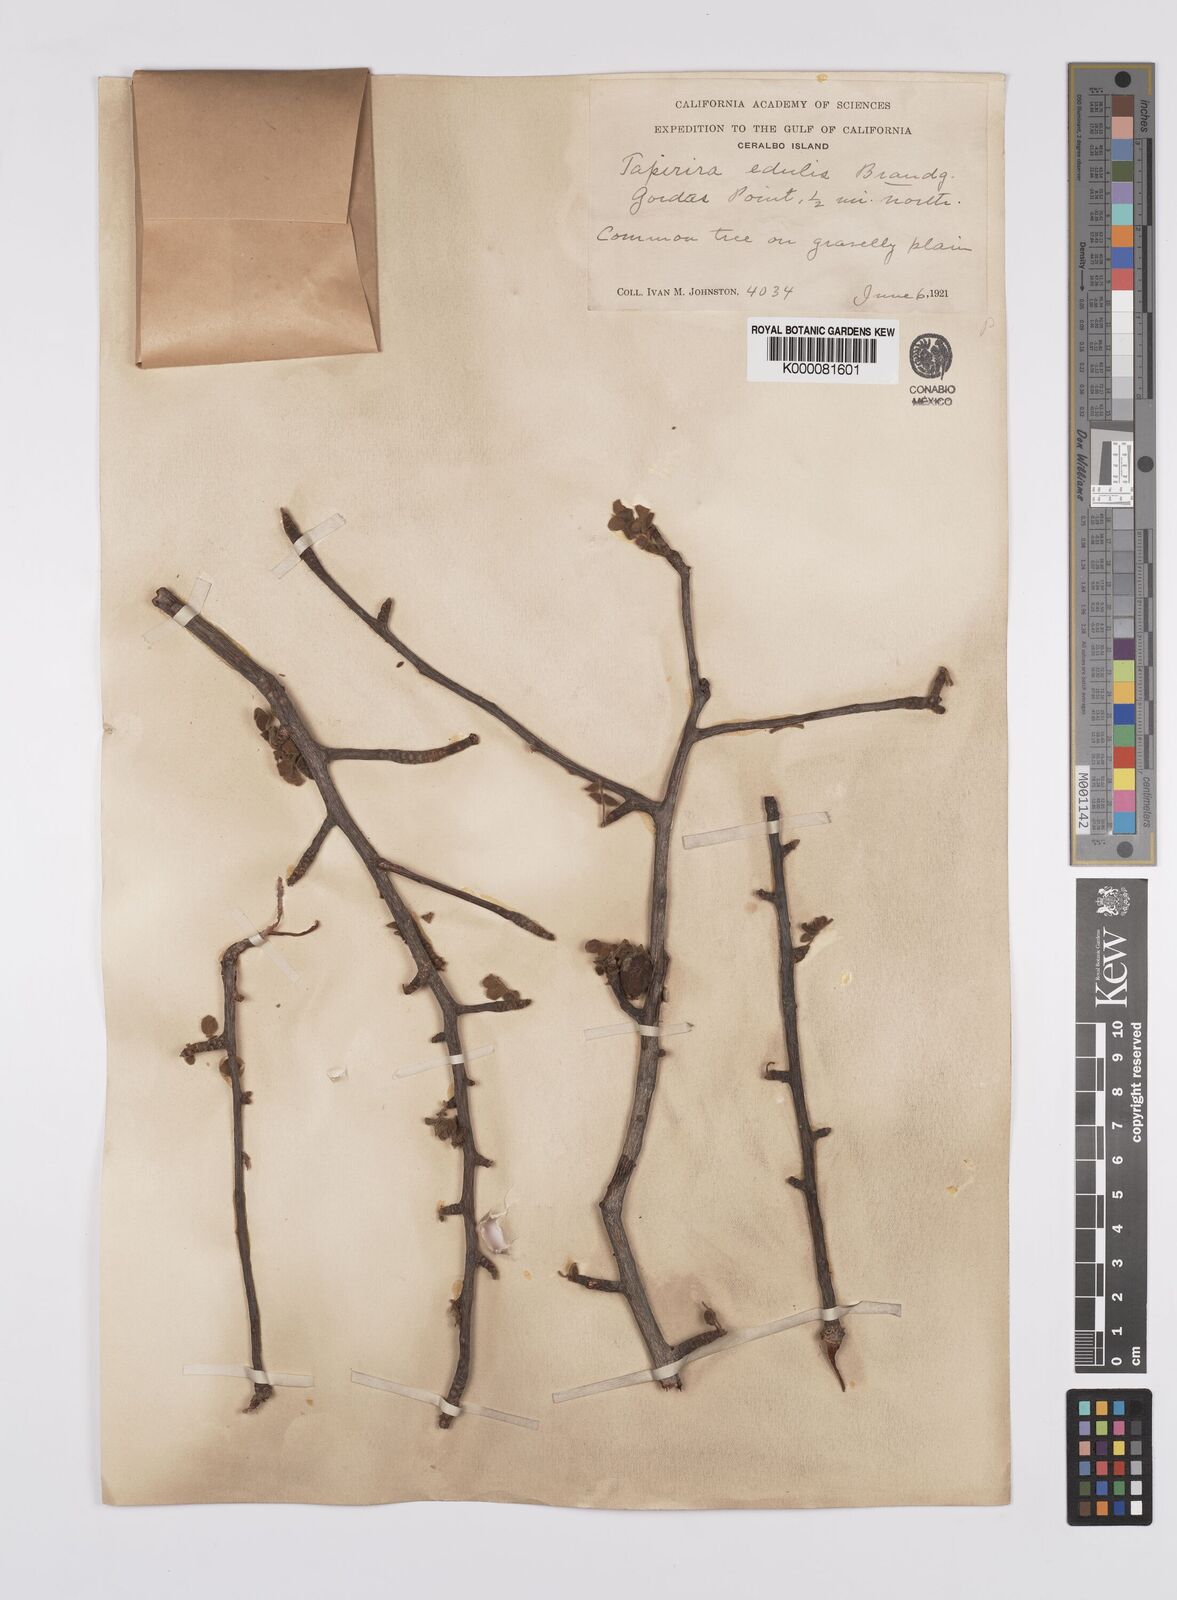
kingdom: Plantae
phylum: Tracheophyta
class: Magnoliopsida
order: Sapindales
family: Anacardiaceae
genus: Cyrtocarpa
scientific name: Cyrtocarpa edulis
